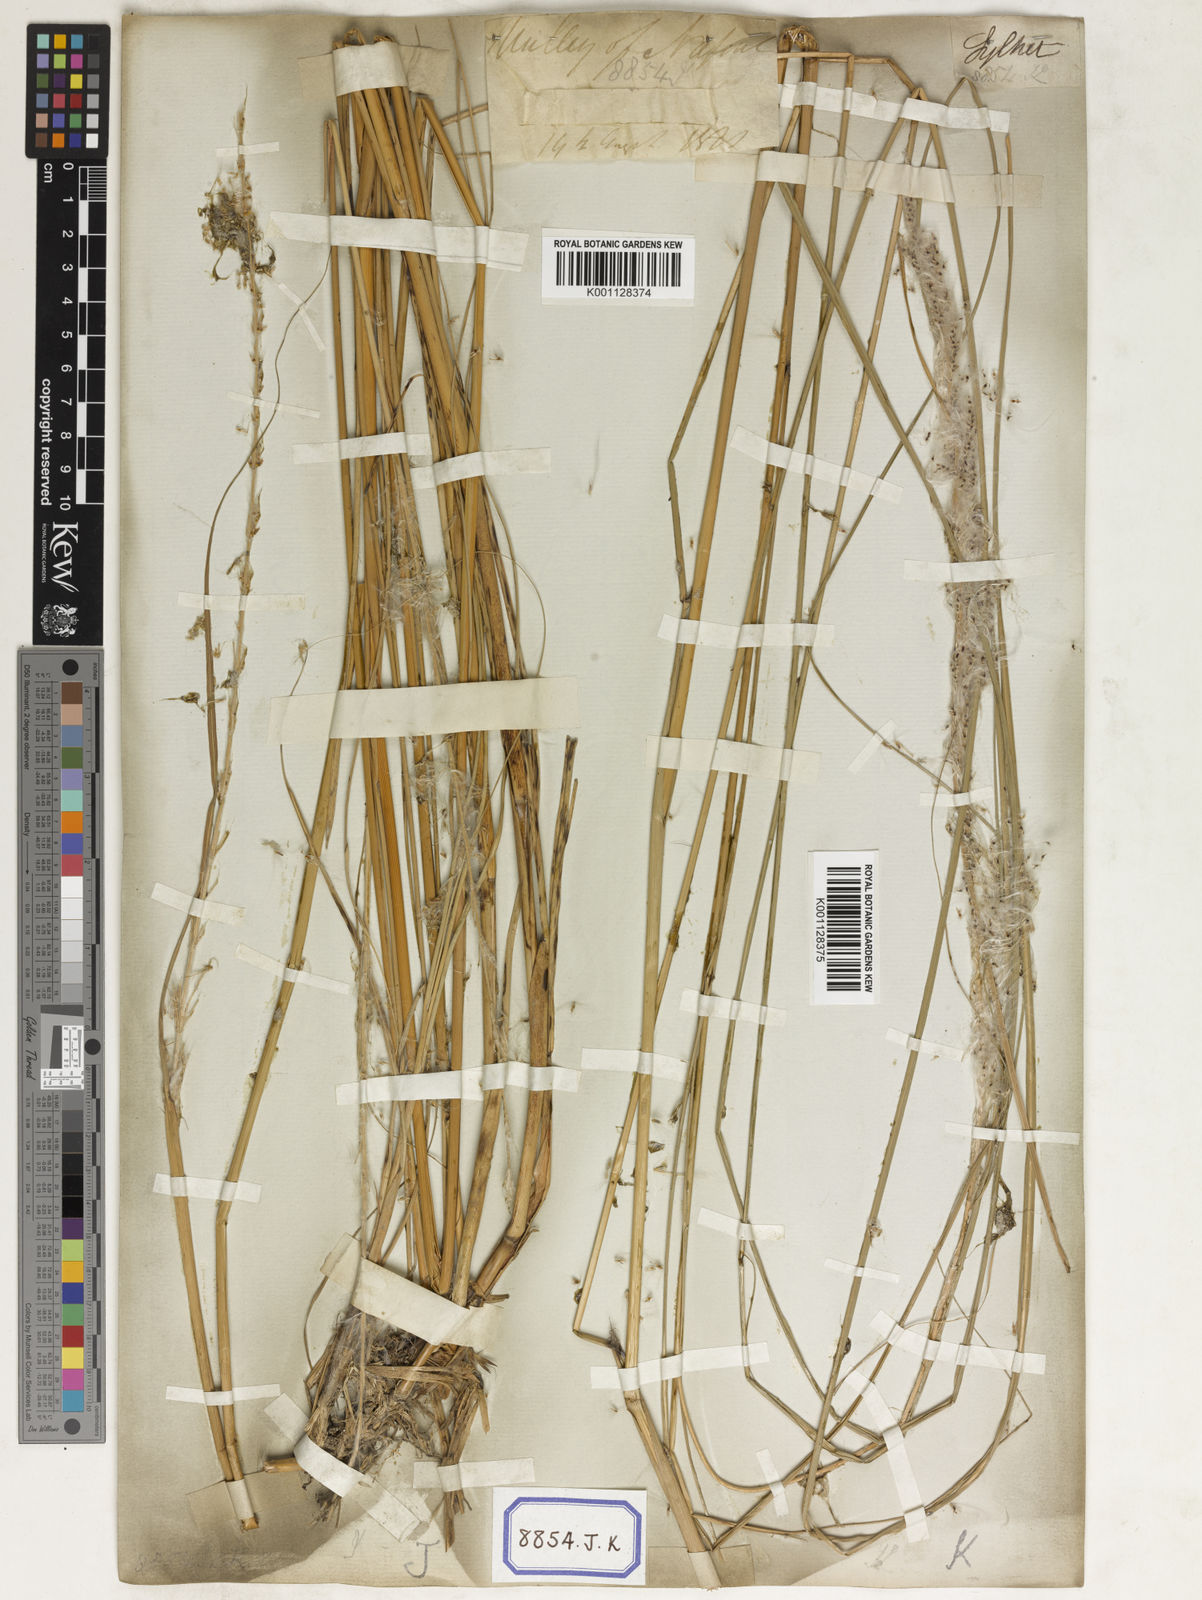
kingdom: Plantae
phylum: Tracheophyta
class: Liliopsida
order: Poales
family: Poaceae
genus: Saccharum
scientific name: Saccharum
